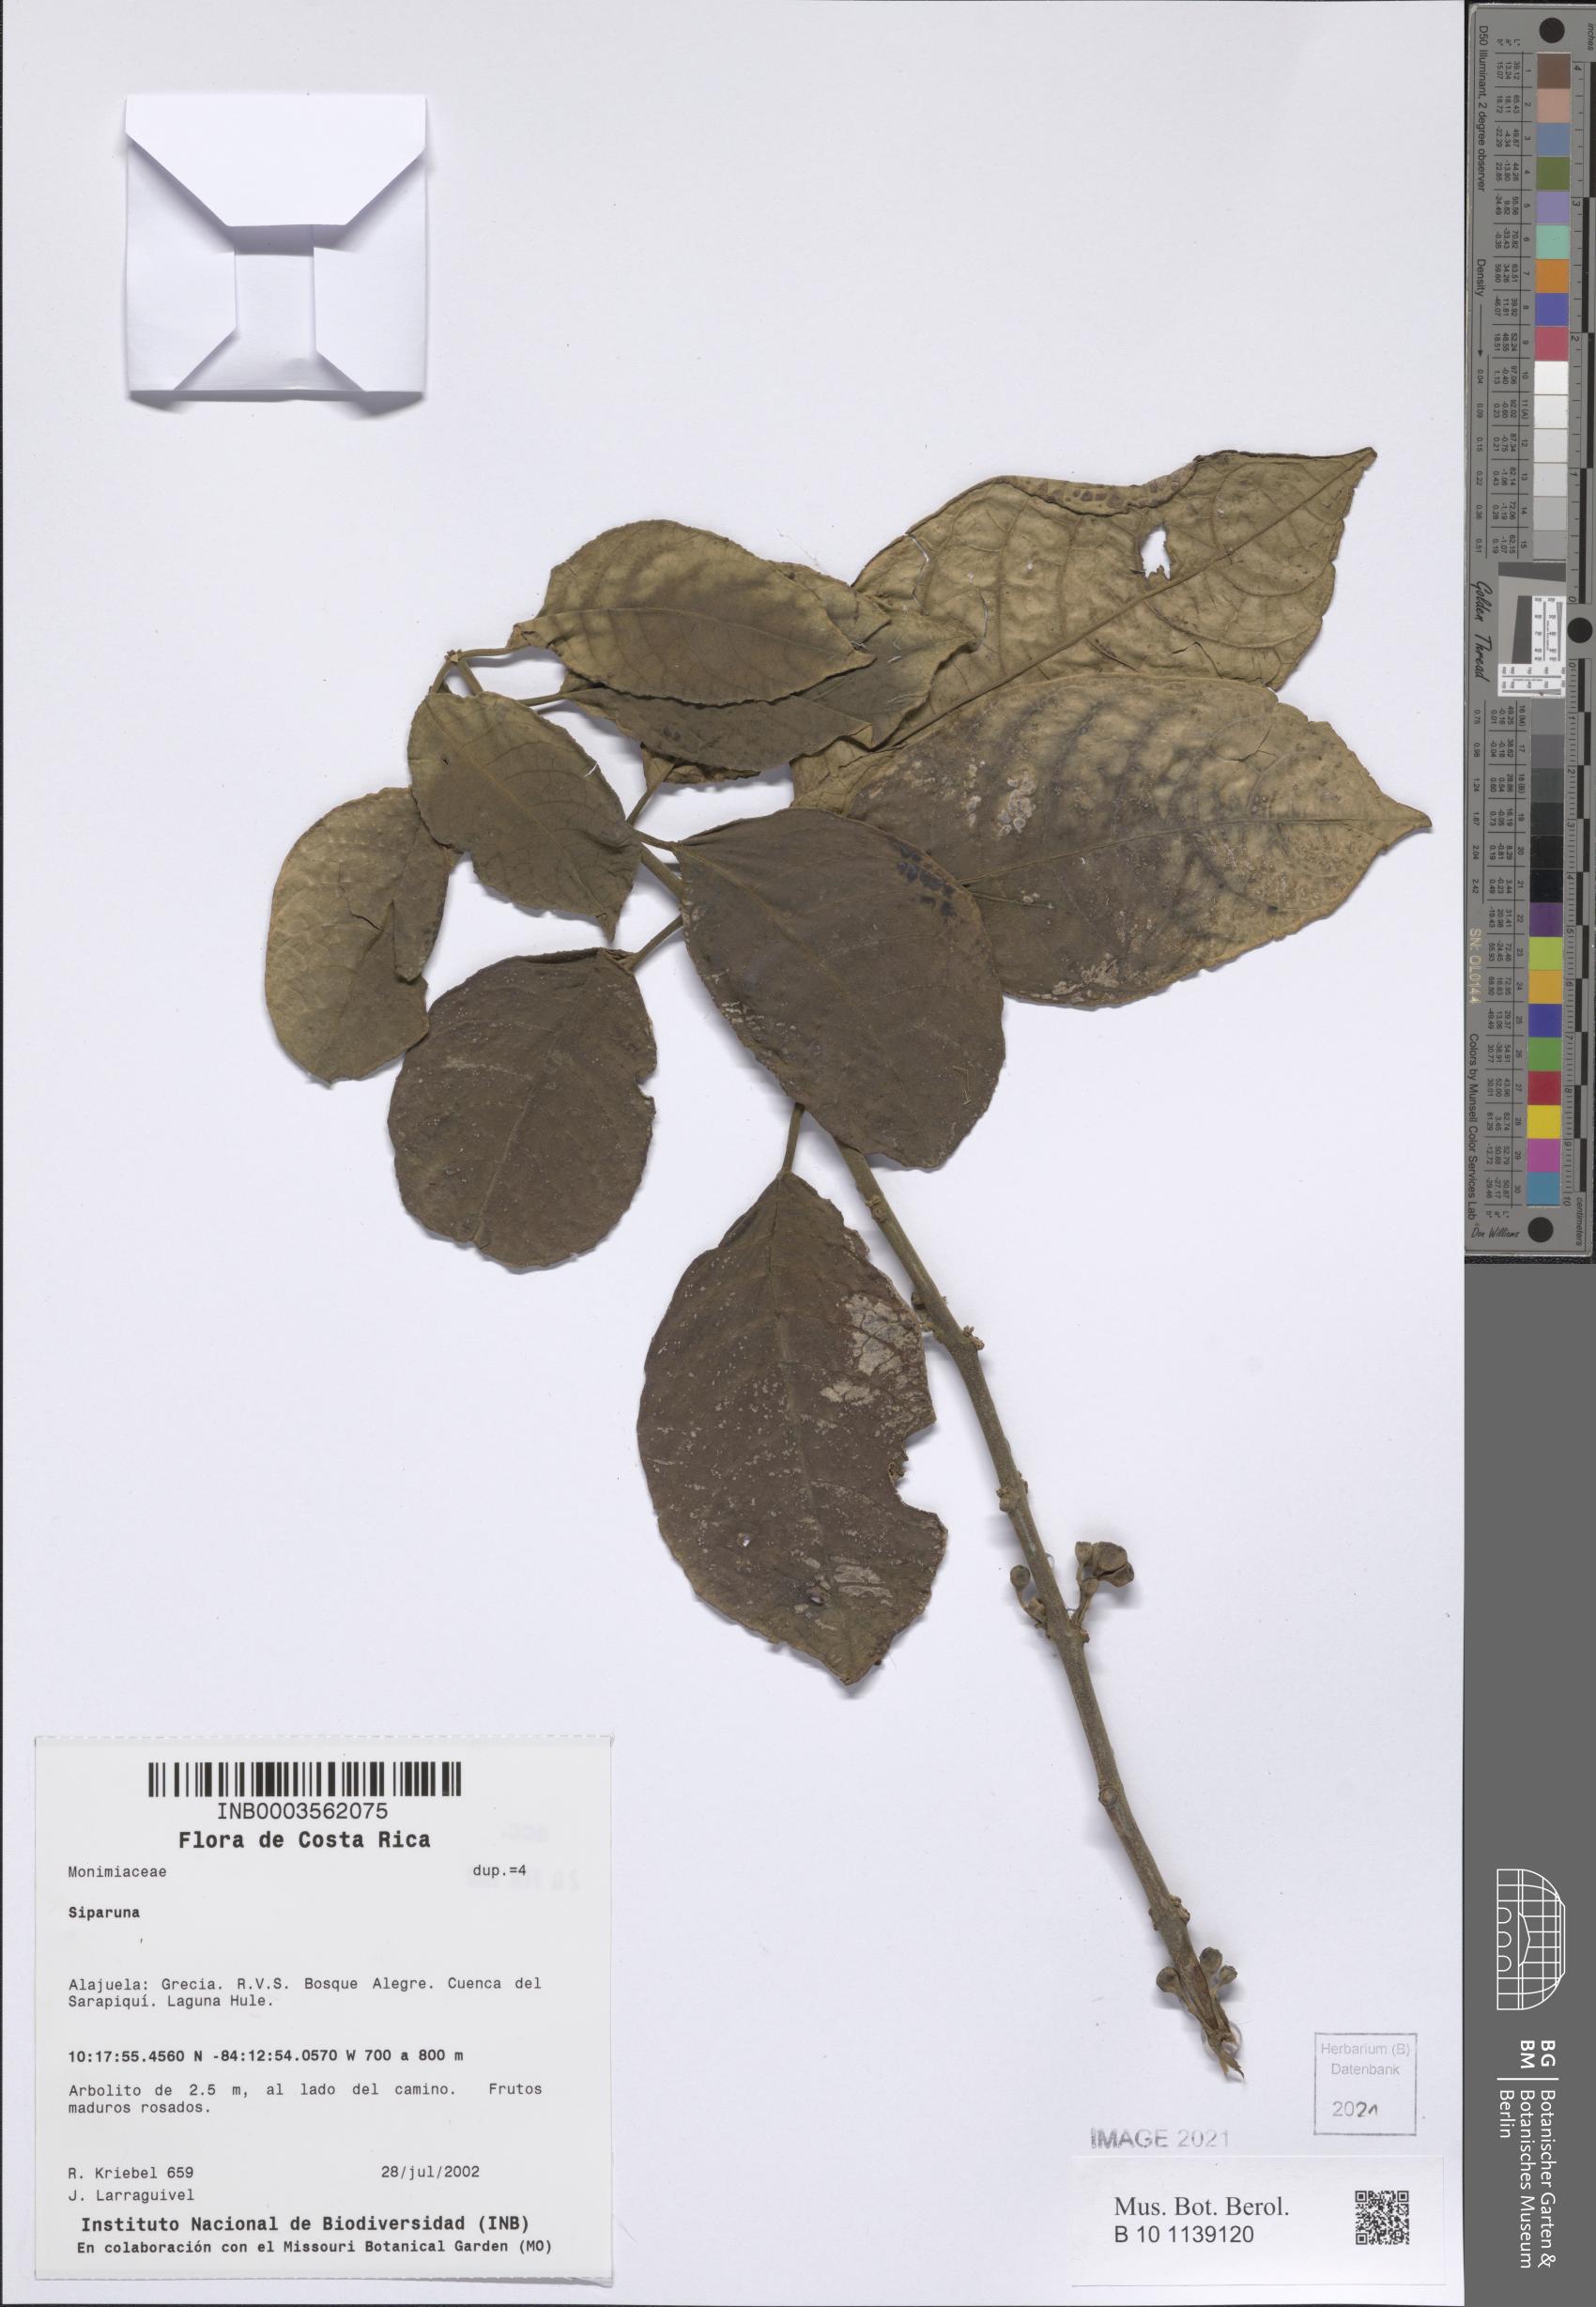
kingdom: Plantae
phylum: Tracheophyta
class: Magnoliopsida
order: Laurales
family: Siparunaceae
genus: Siparuna
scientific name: Siparuna
